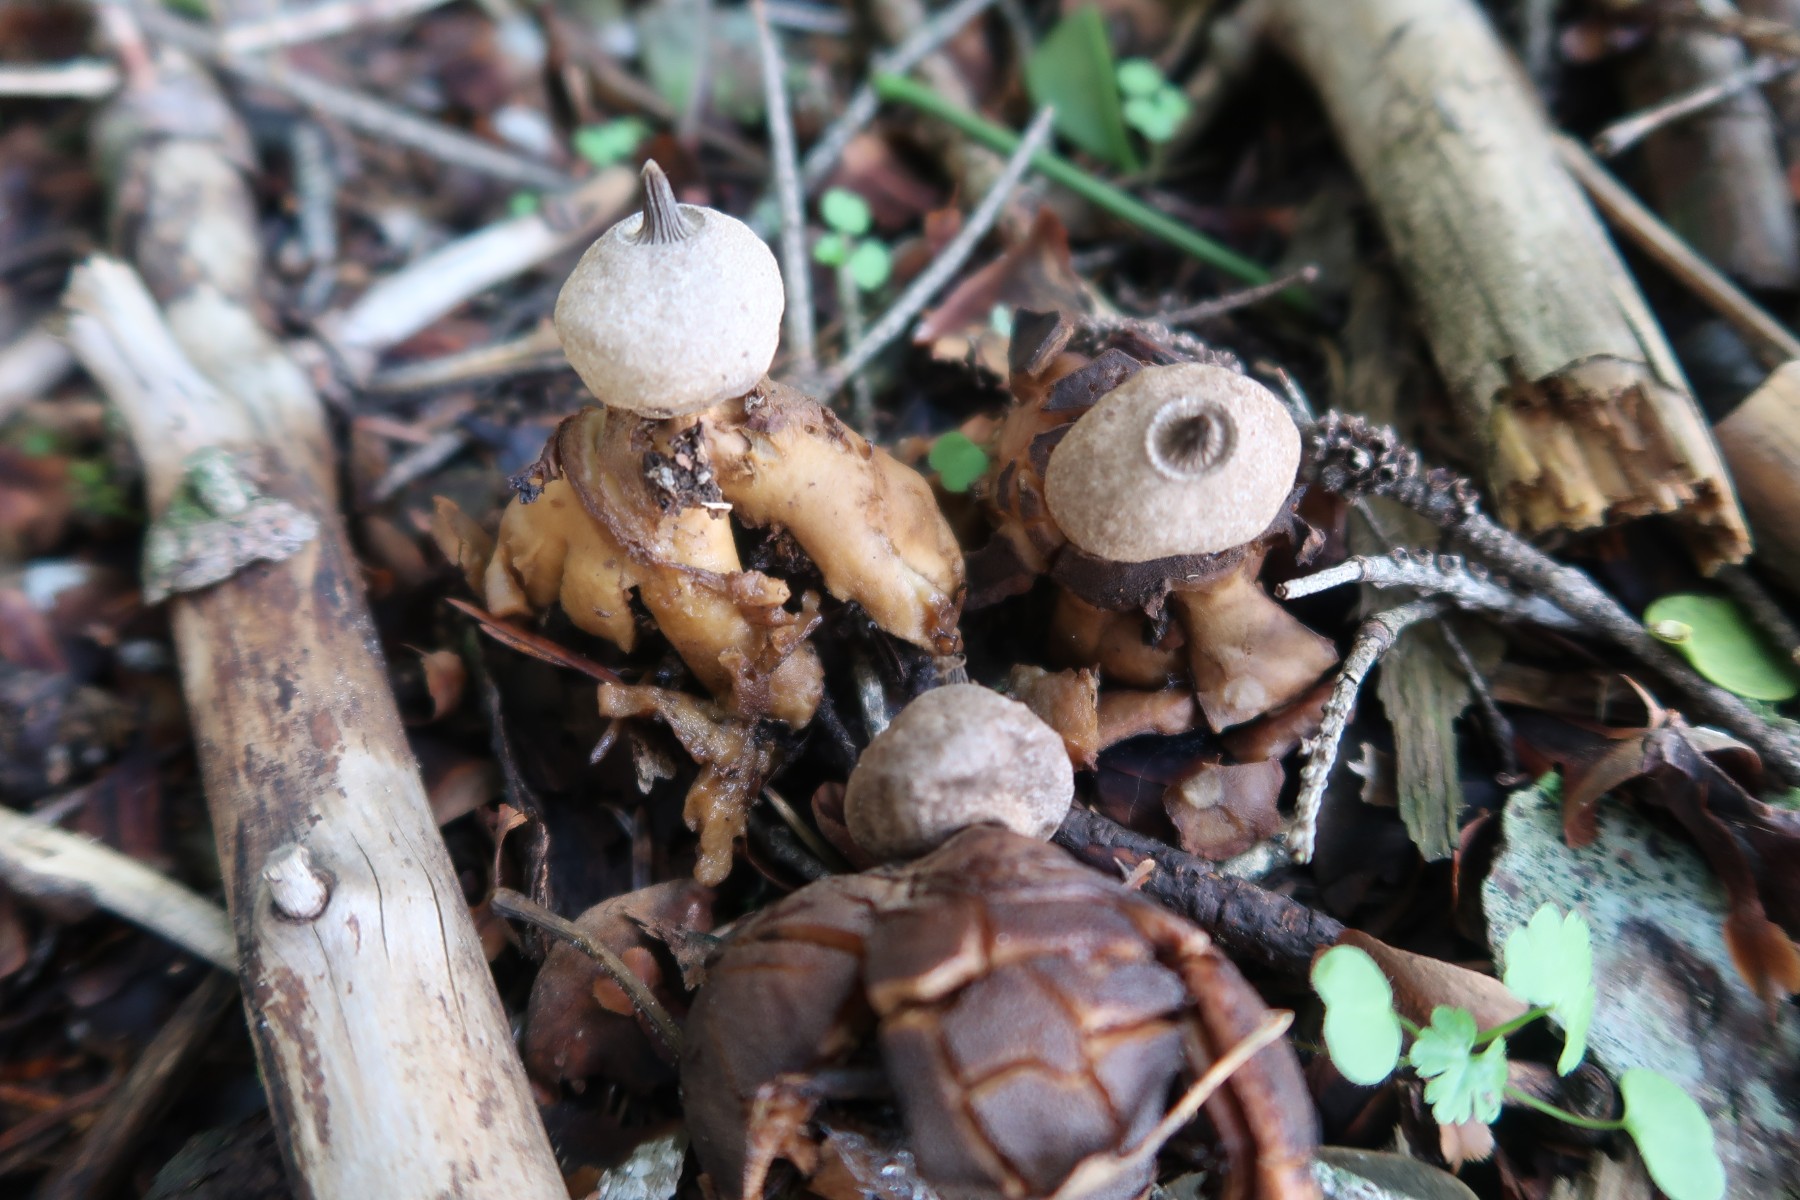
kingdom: Fungi
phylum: Basidiomycota
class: Agaricomycetes
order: Geastrales
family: Geastraceae
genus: Geastrum
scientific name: Geastrum pectinatum
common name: stilket stjernebold
